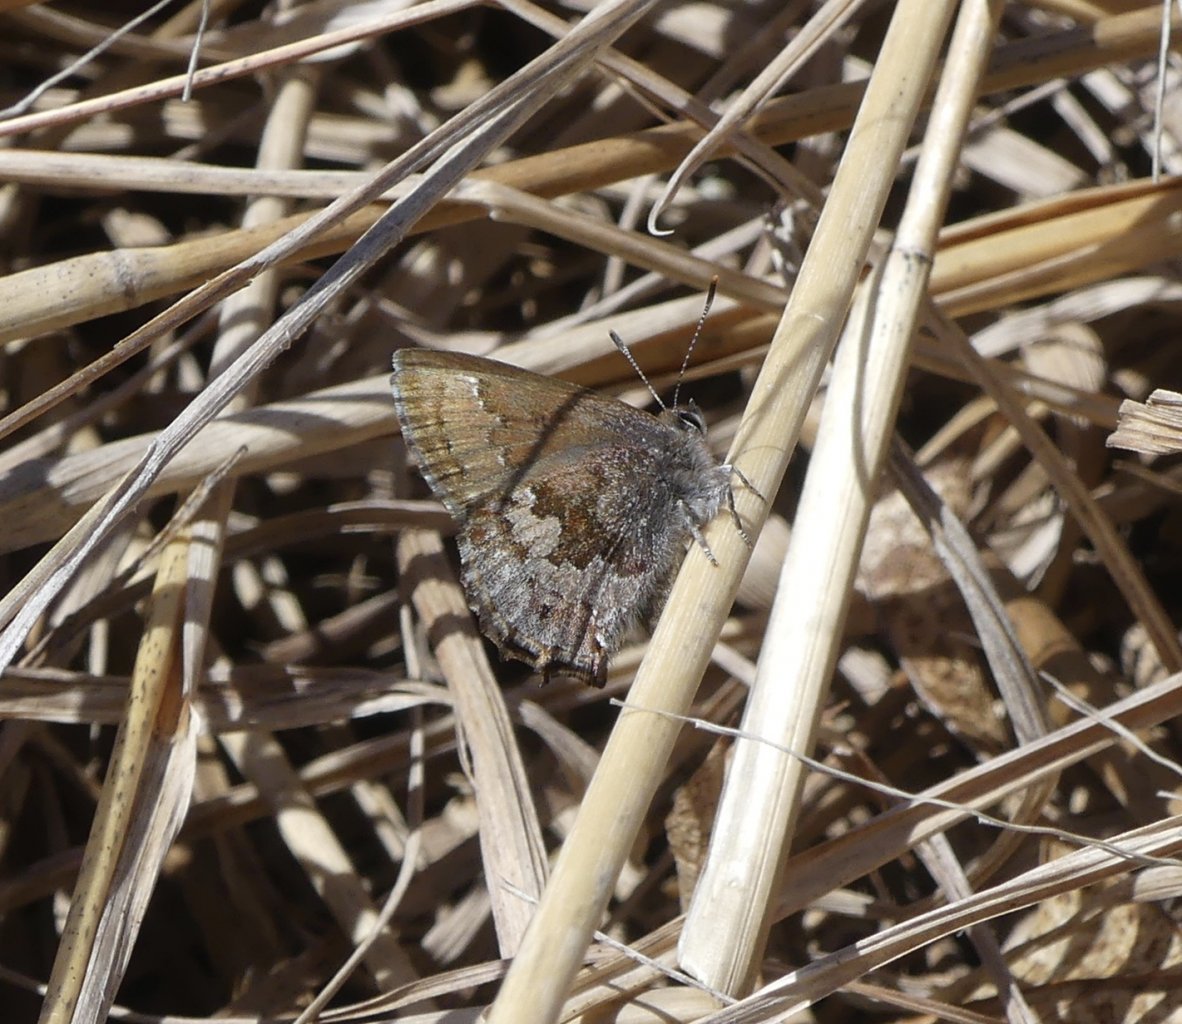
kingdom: Animalia
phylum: Arthropoda
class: Insecta
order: Lepidoptera
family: Lycaenidae
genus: Thecla
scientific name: Thecla irus
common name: Frosted Elfin
